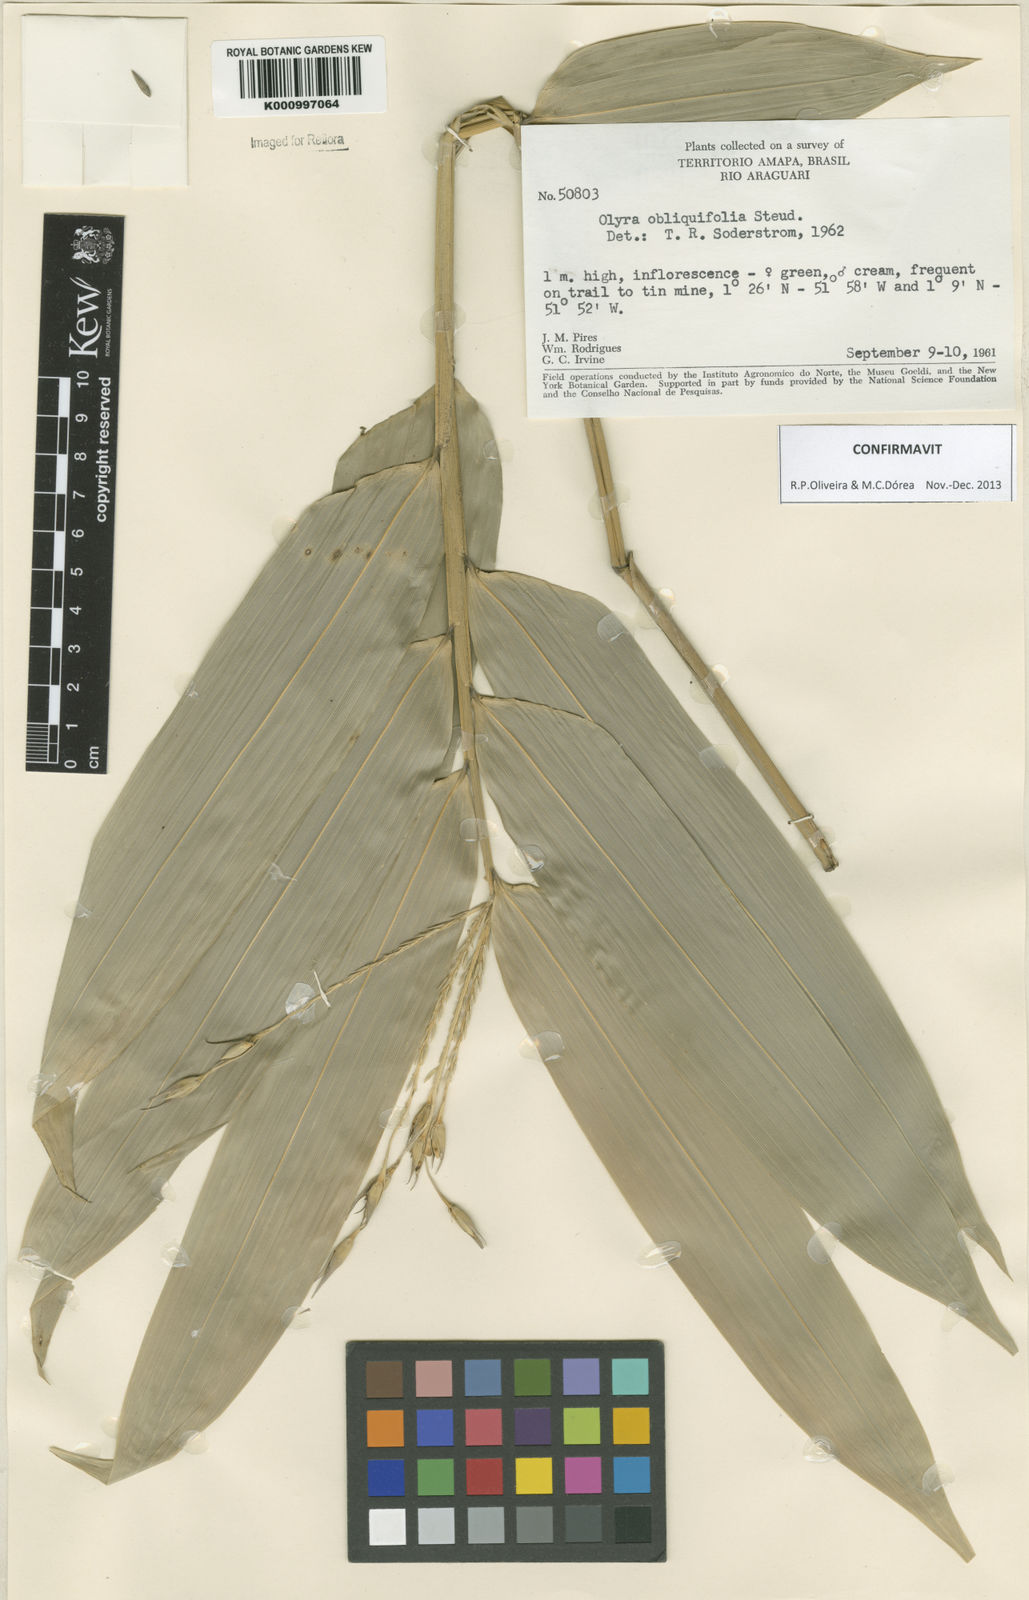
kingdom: Plantae
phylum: Tracheophyta
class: Liliopsida
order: Poales
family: Poaceae
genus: Olyra
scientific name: Olyra obliquifolia
